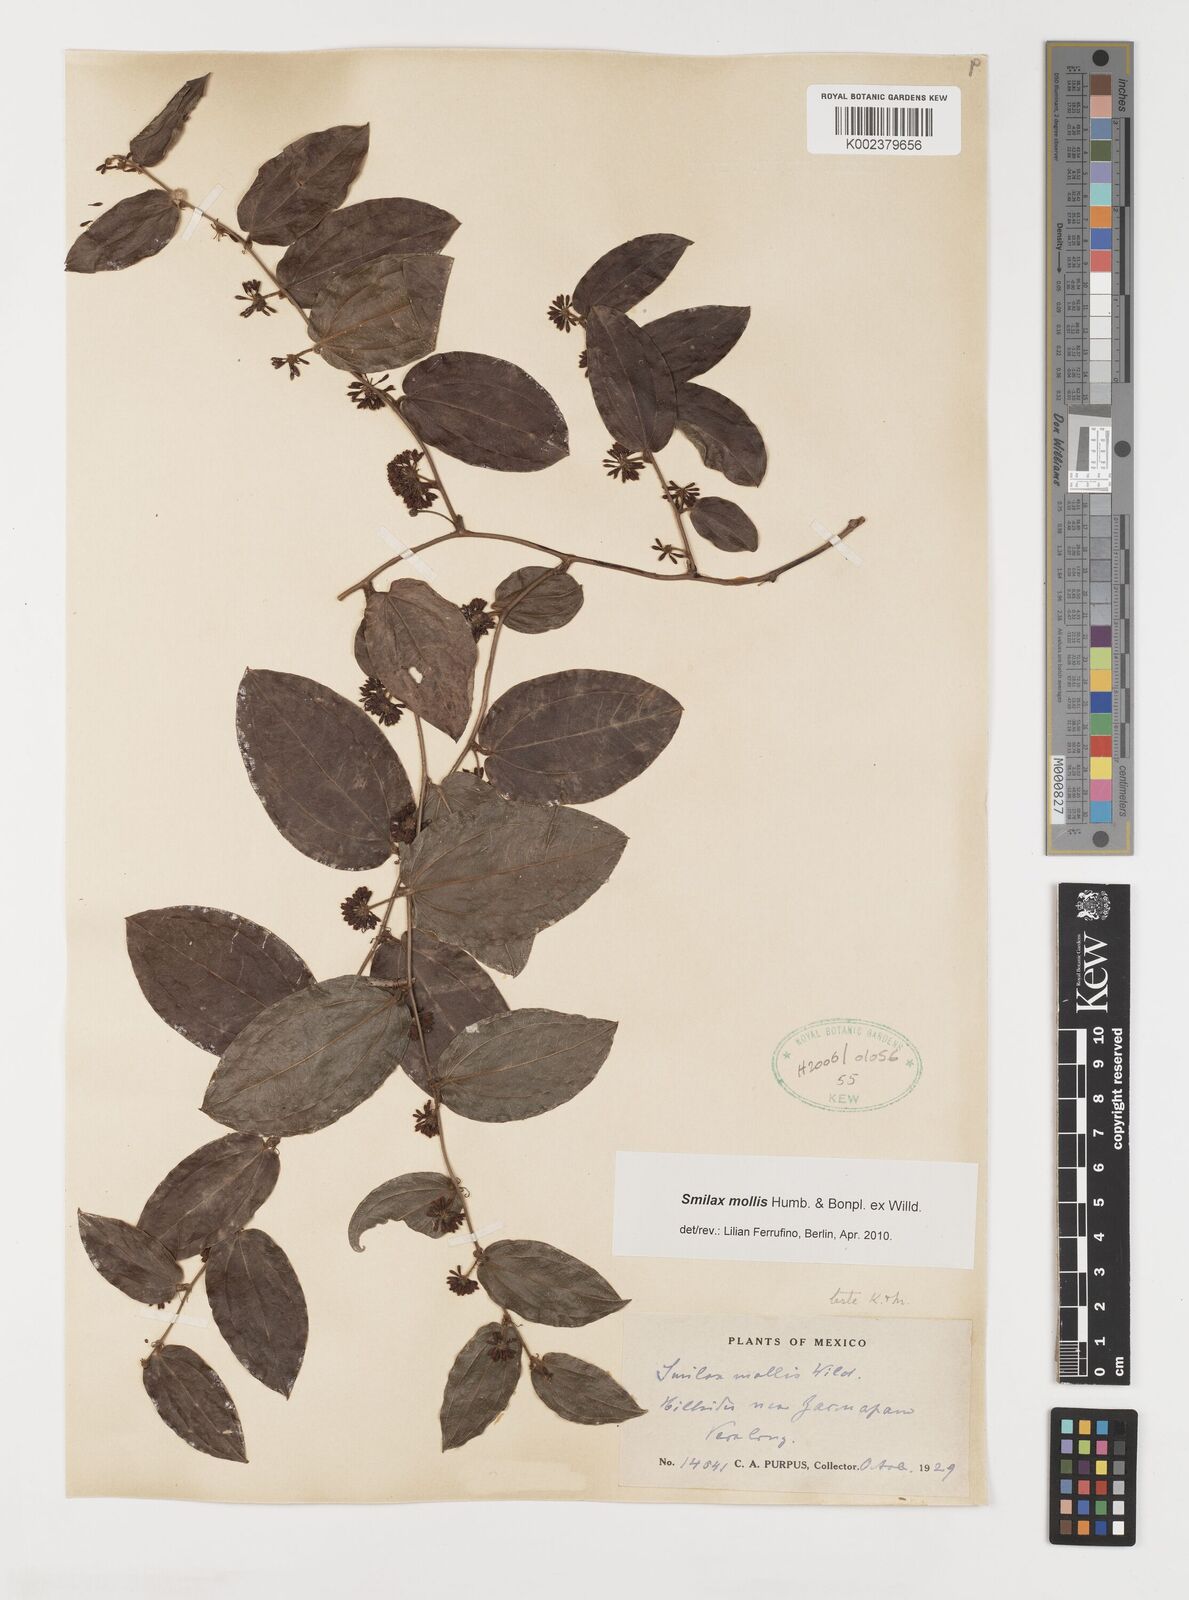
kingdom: Plantae
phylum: Tracheophyta
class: Liliopsida
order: Liliales
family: Smilacaceae
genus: Smilax
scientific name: Smilax mollis
